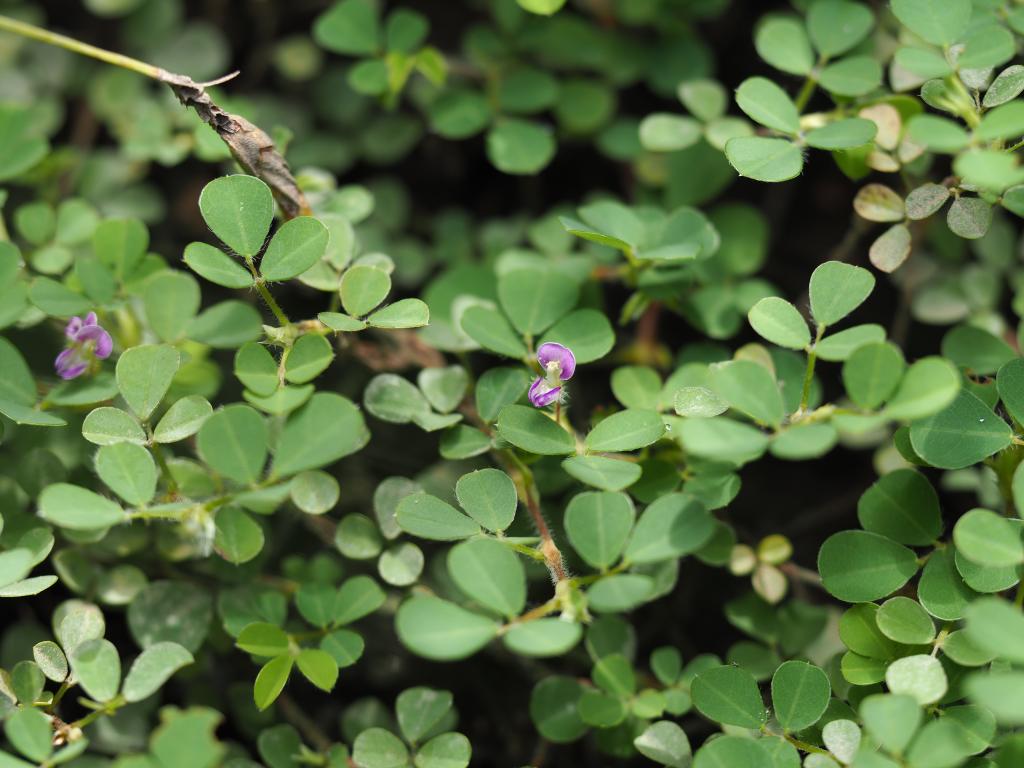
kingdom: Plantae
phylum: Tracheophyta
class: Magnoliopsida
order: Fabales
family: Fabaceae
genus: Grona
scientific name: Grona triflora
